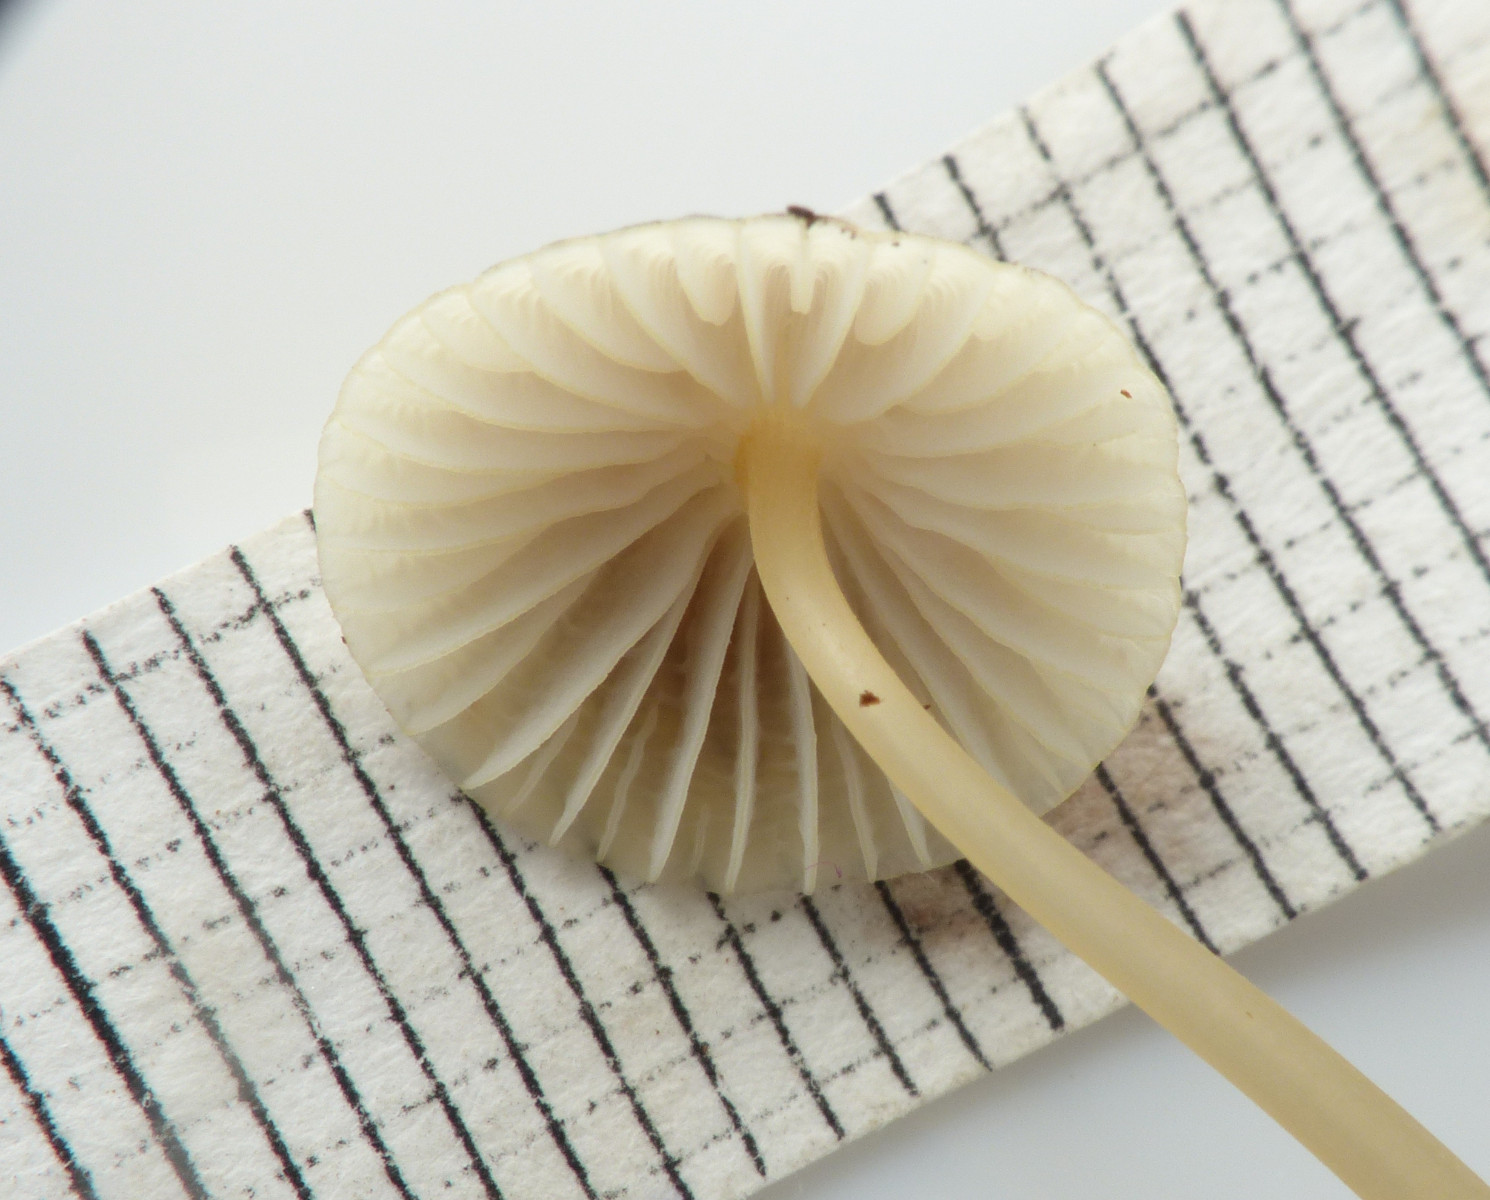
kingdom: Fungi
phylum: Basidiomycota
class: Agaricomycetes
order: Agaricales
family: Mycenaceae
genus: Mycena
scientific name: Mycena citrinomarginata
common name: gulægget huesvamp
